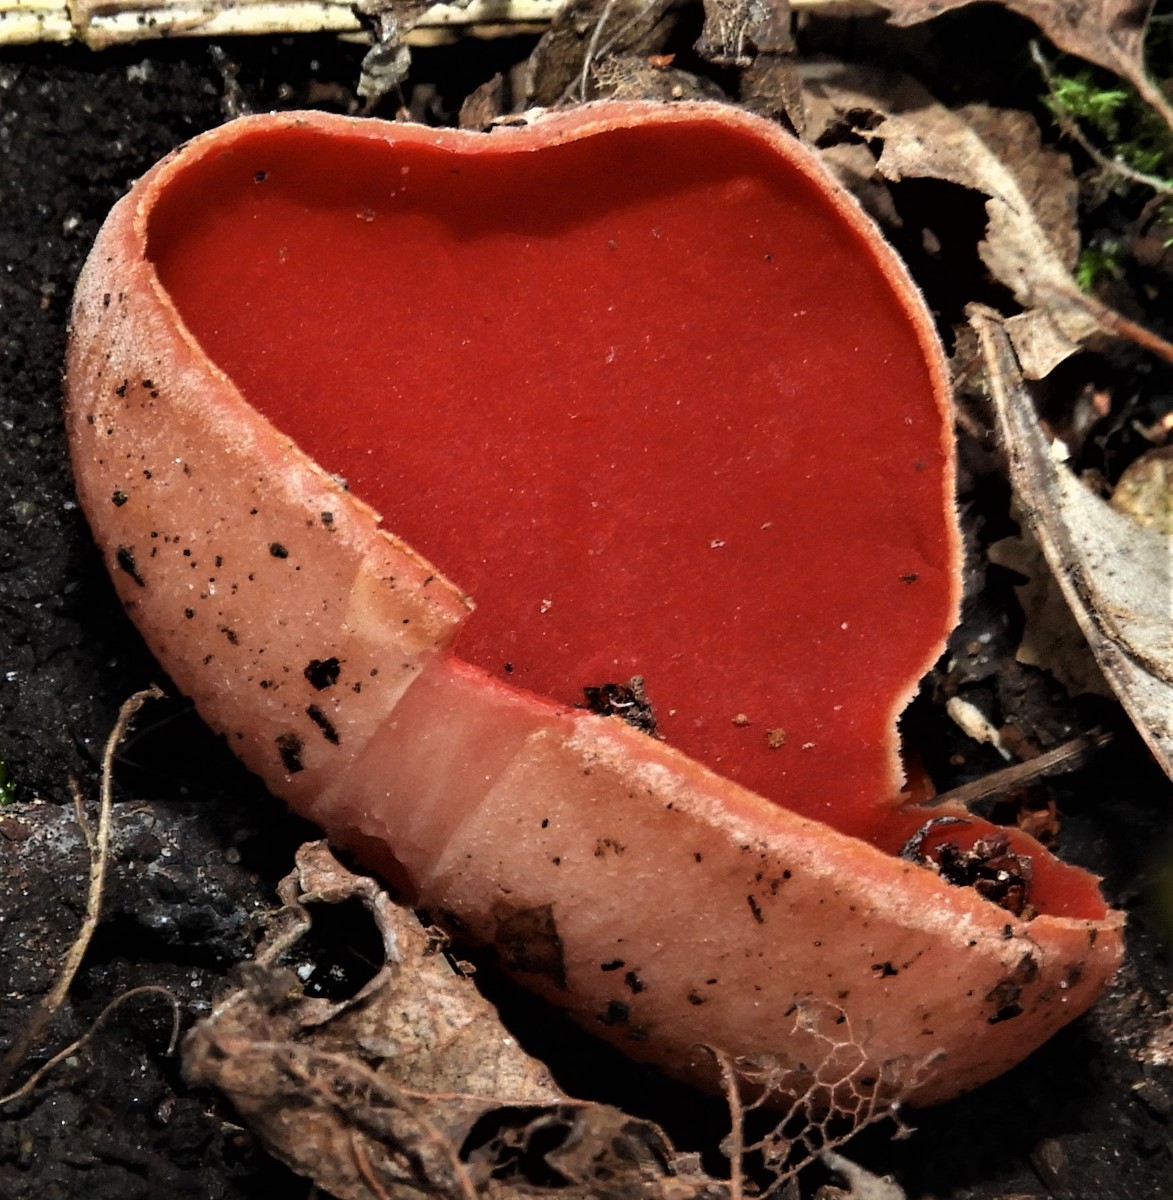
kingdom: Fungi
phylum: Ascomycota
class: Pezizomycetes
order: Pezizales
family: Sarcoscyphaceae
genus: Sarcoscypha
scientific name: Sarcoscypha austriaca
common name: krølhåret pragtbæger
